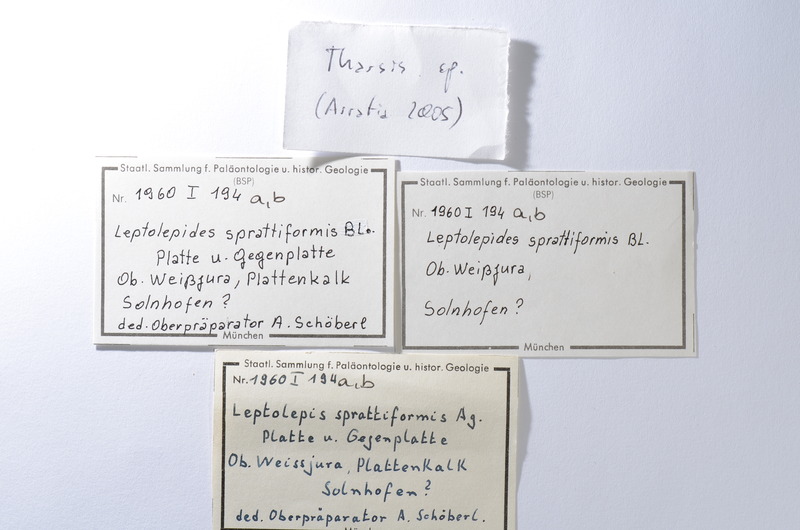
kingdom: Animalia
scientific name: Animalia
